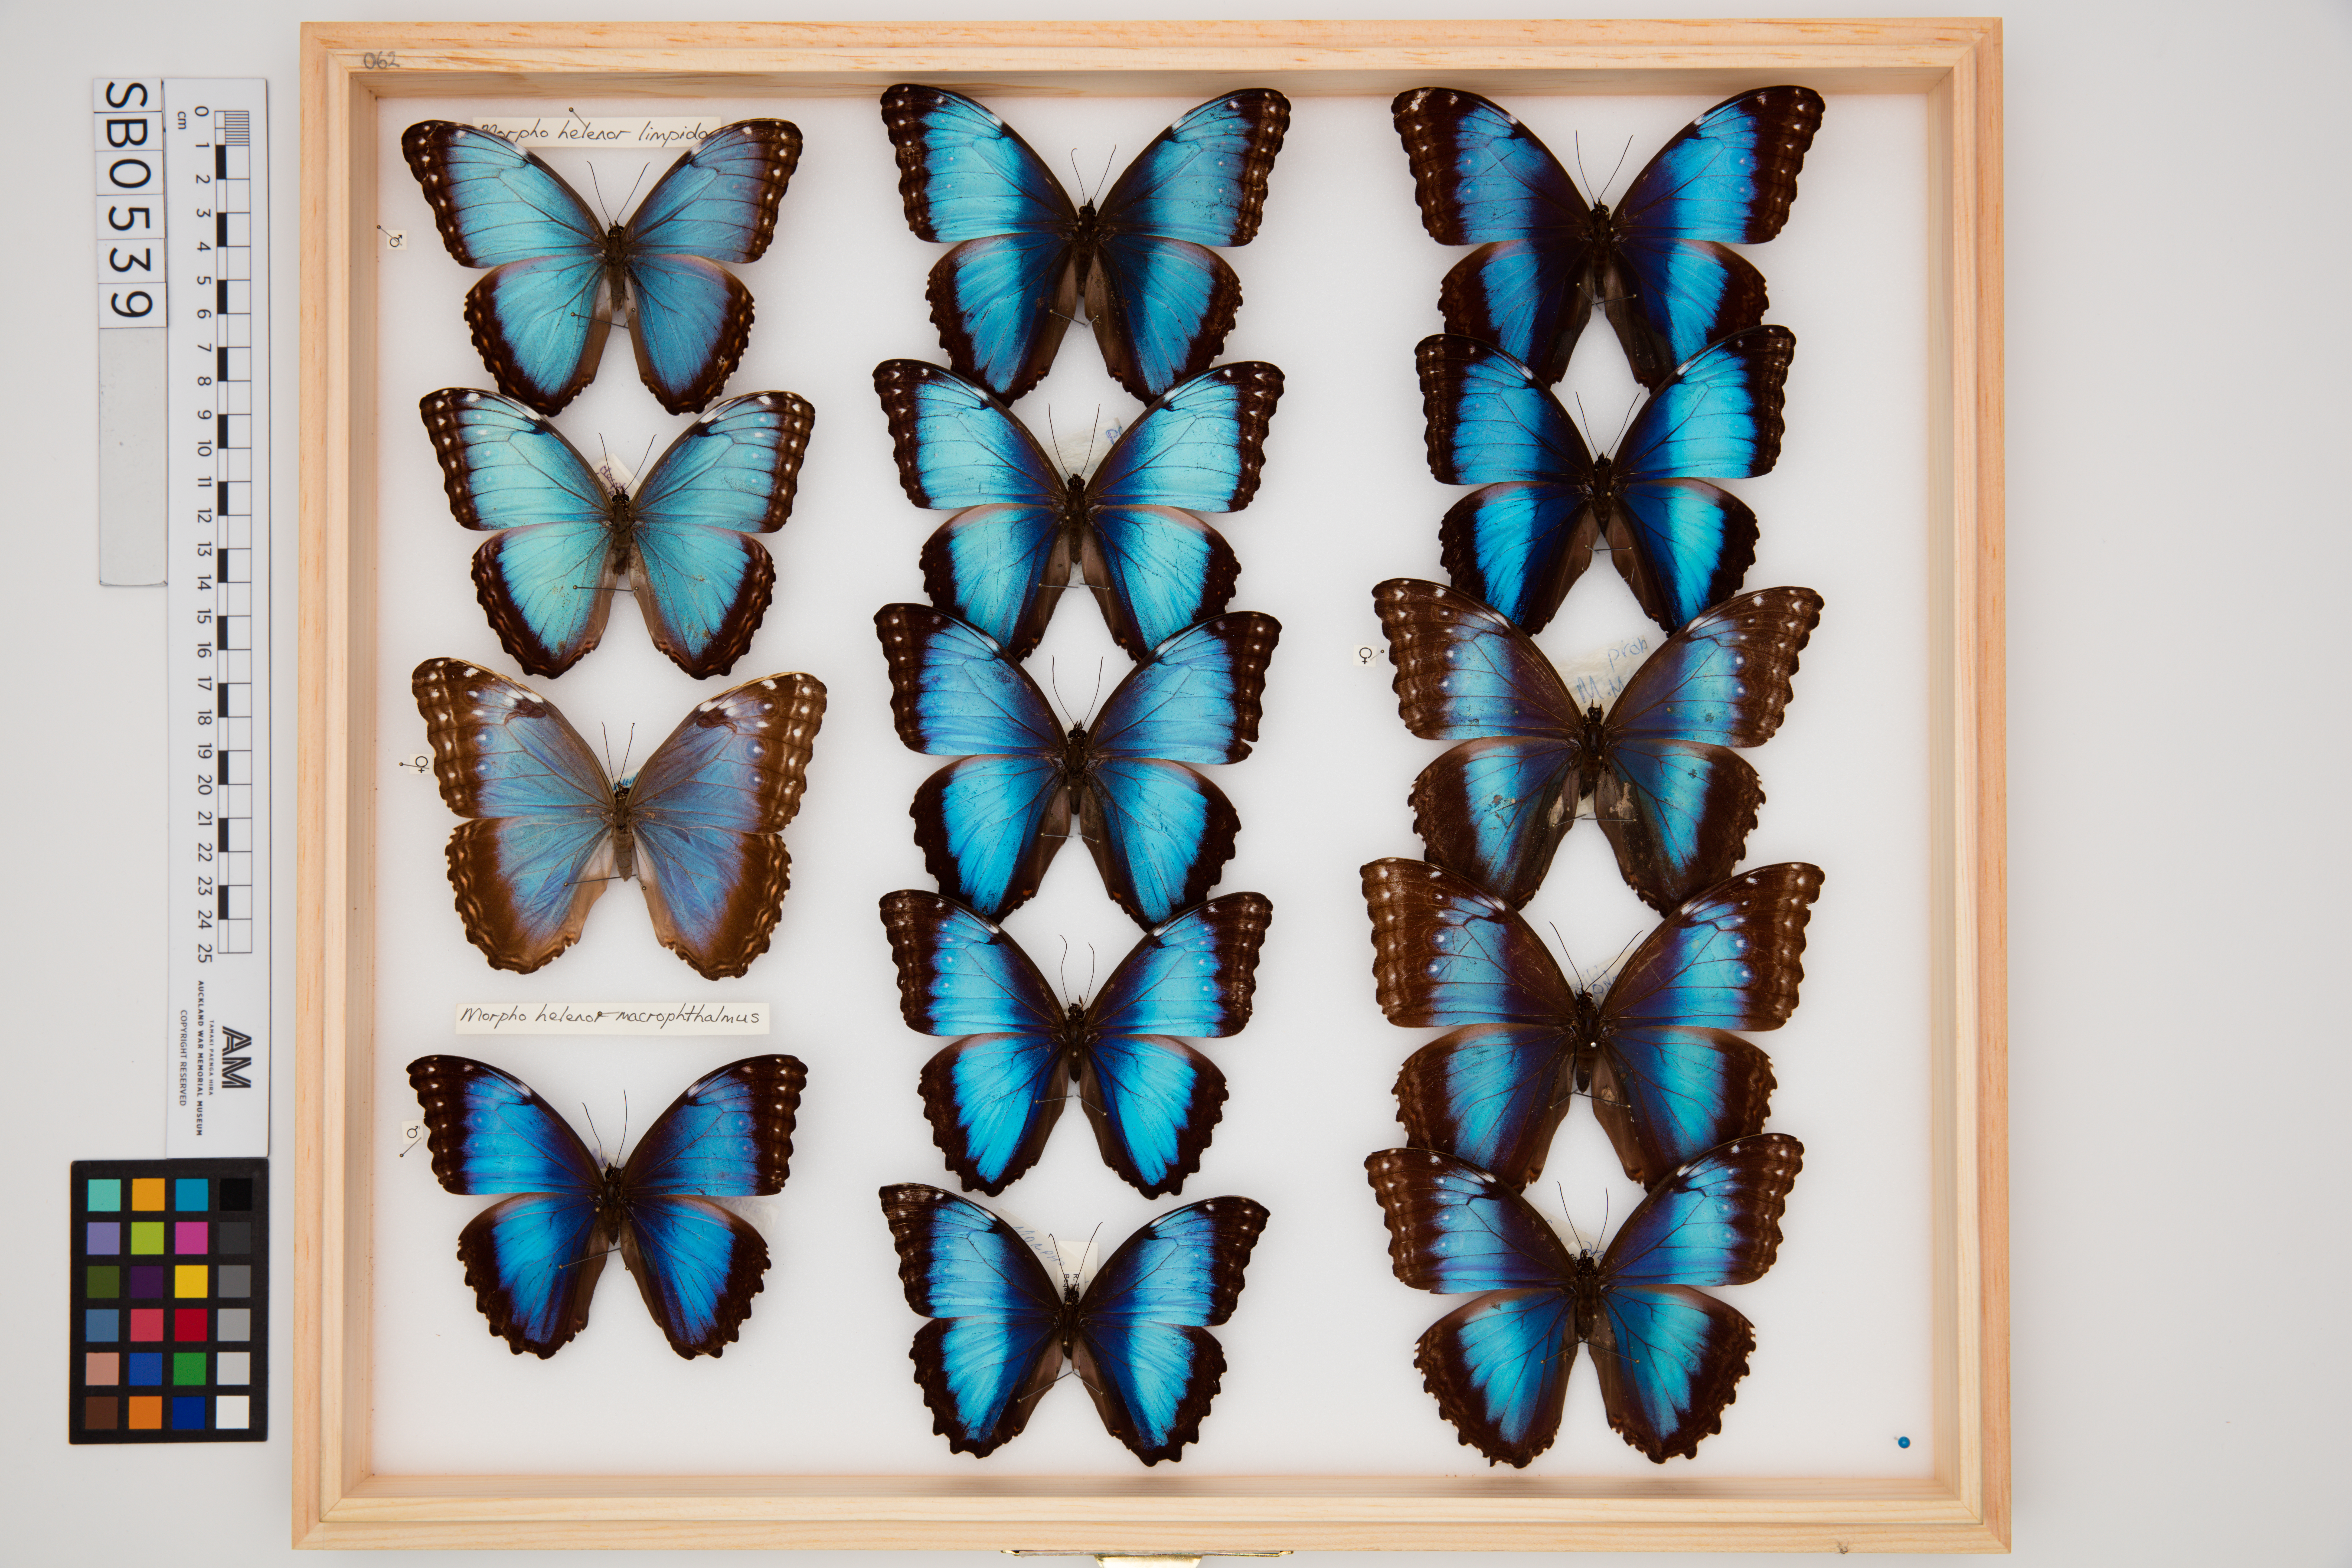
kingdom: Animalia
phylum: Arthropoda
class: Insecta
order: Lepidoptera
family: Nymphalidae
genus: Morpho
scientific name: Morpho helenor
